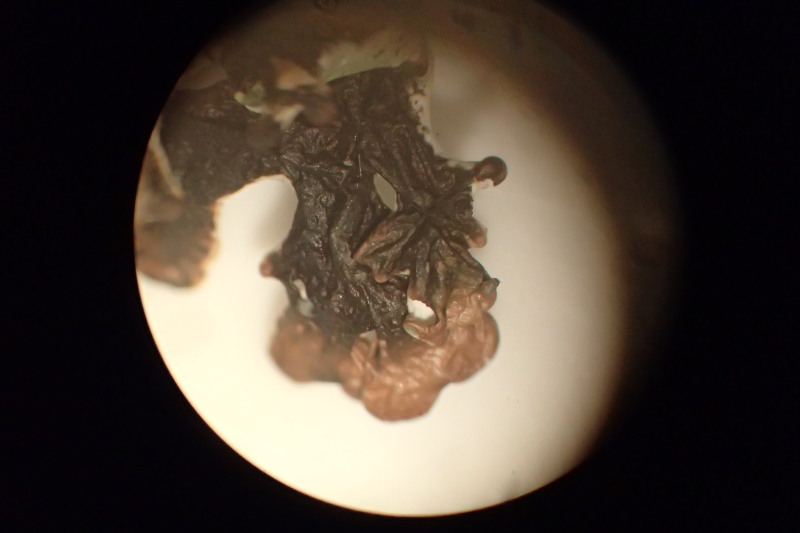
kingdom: Fungi
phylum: Ascomycota
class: Lecanoromycetes
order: Lecanorales
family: Parmeliaceae
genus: Hypogymnia
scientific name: Hypogymnia physodes
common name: almindelig kvistlav
